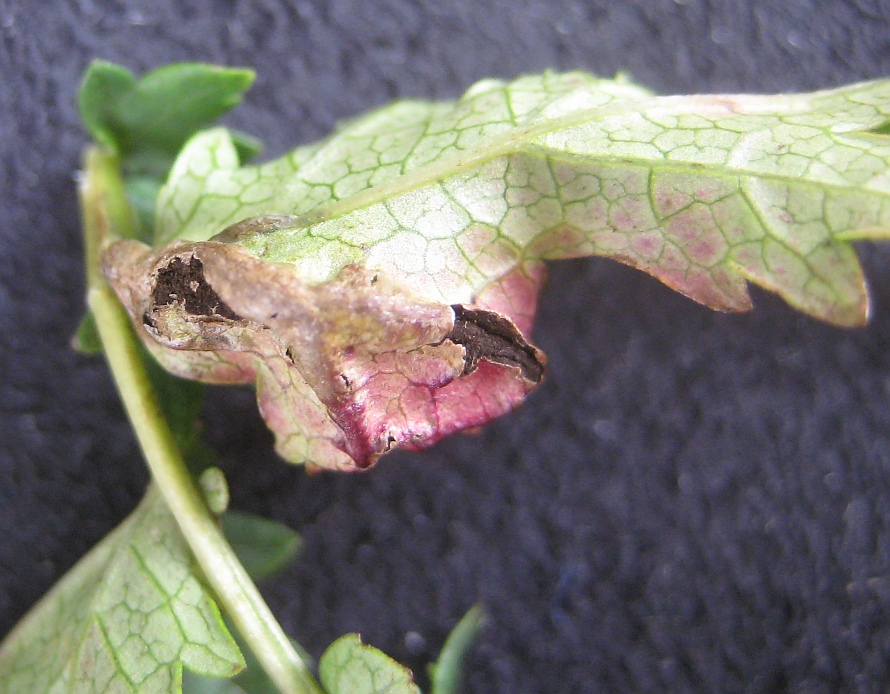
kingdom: Fungi
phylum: Basidiomycota
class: Ustilaginomycetes
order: Urocystidales
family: Urocystidaceae
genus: Urocystis
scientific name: Urocystis filipendulae
